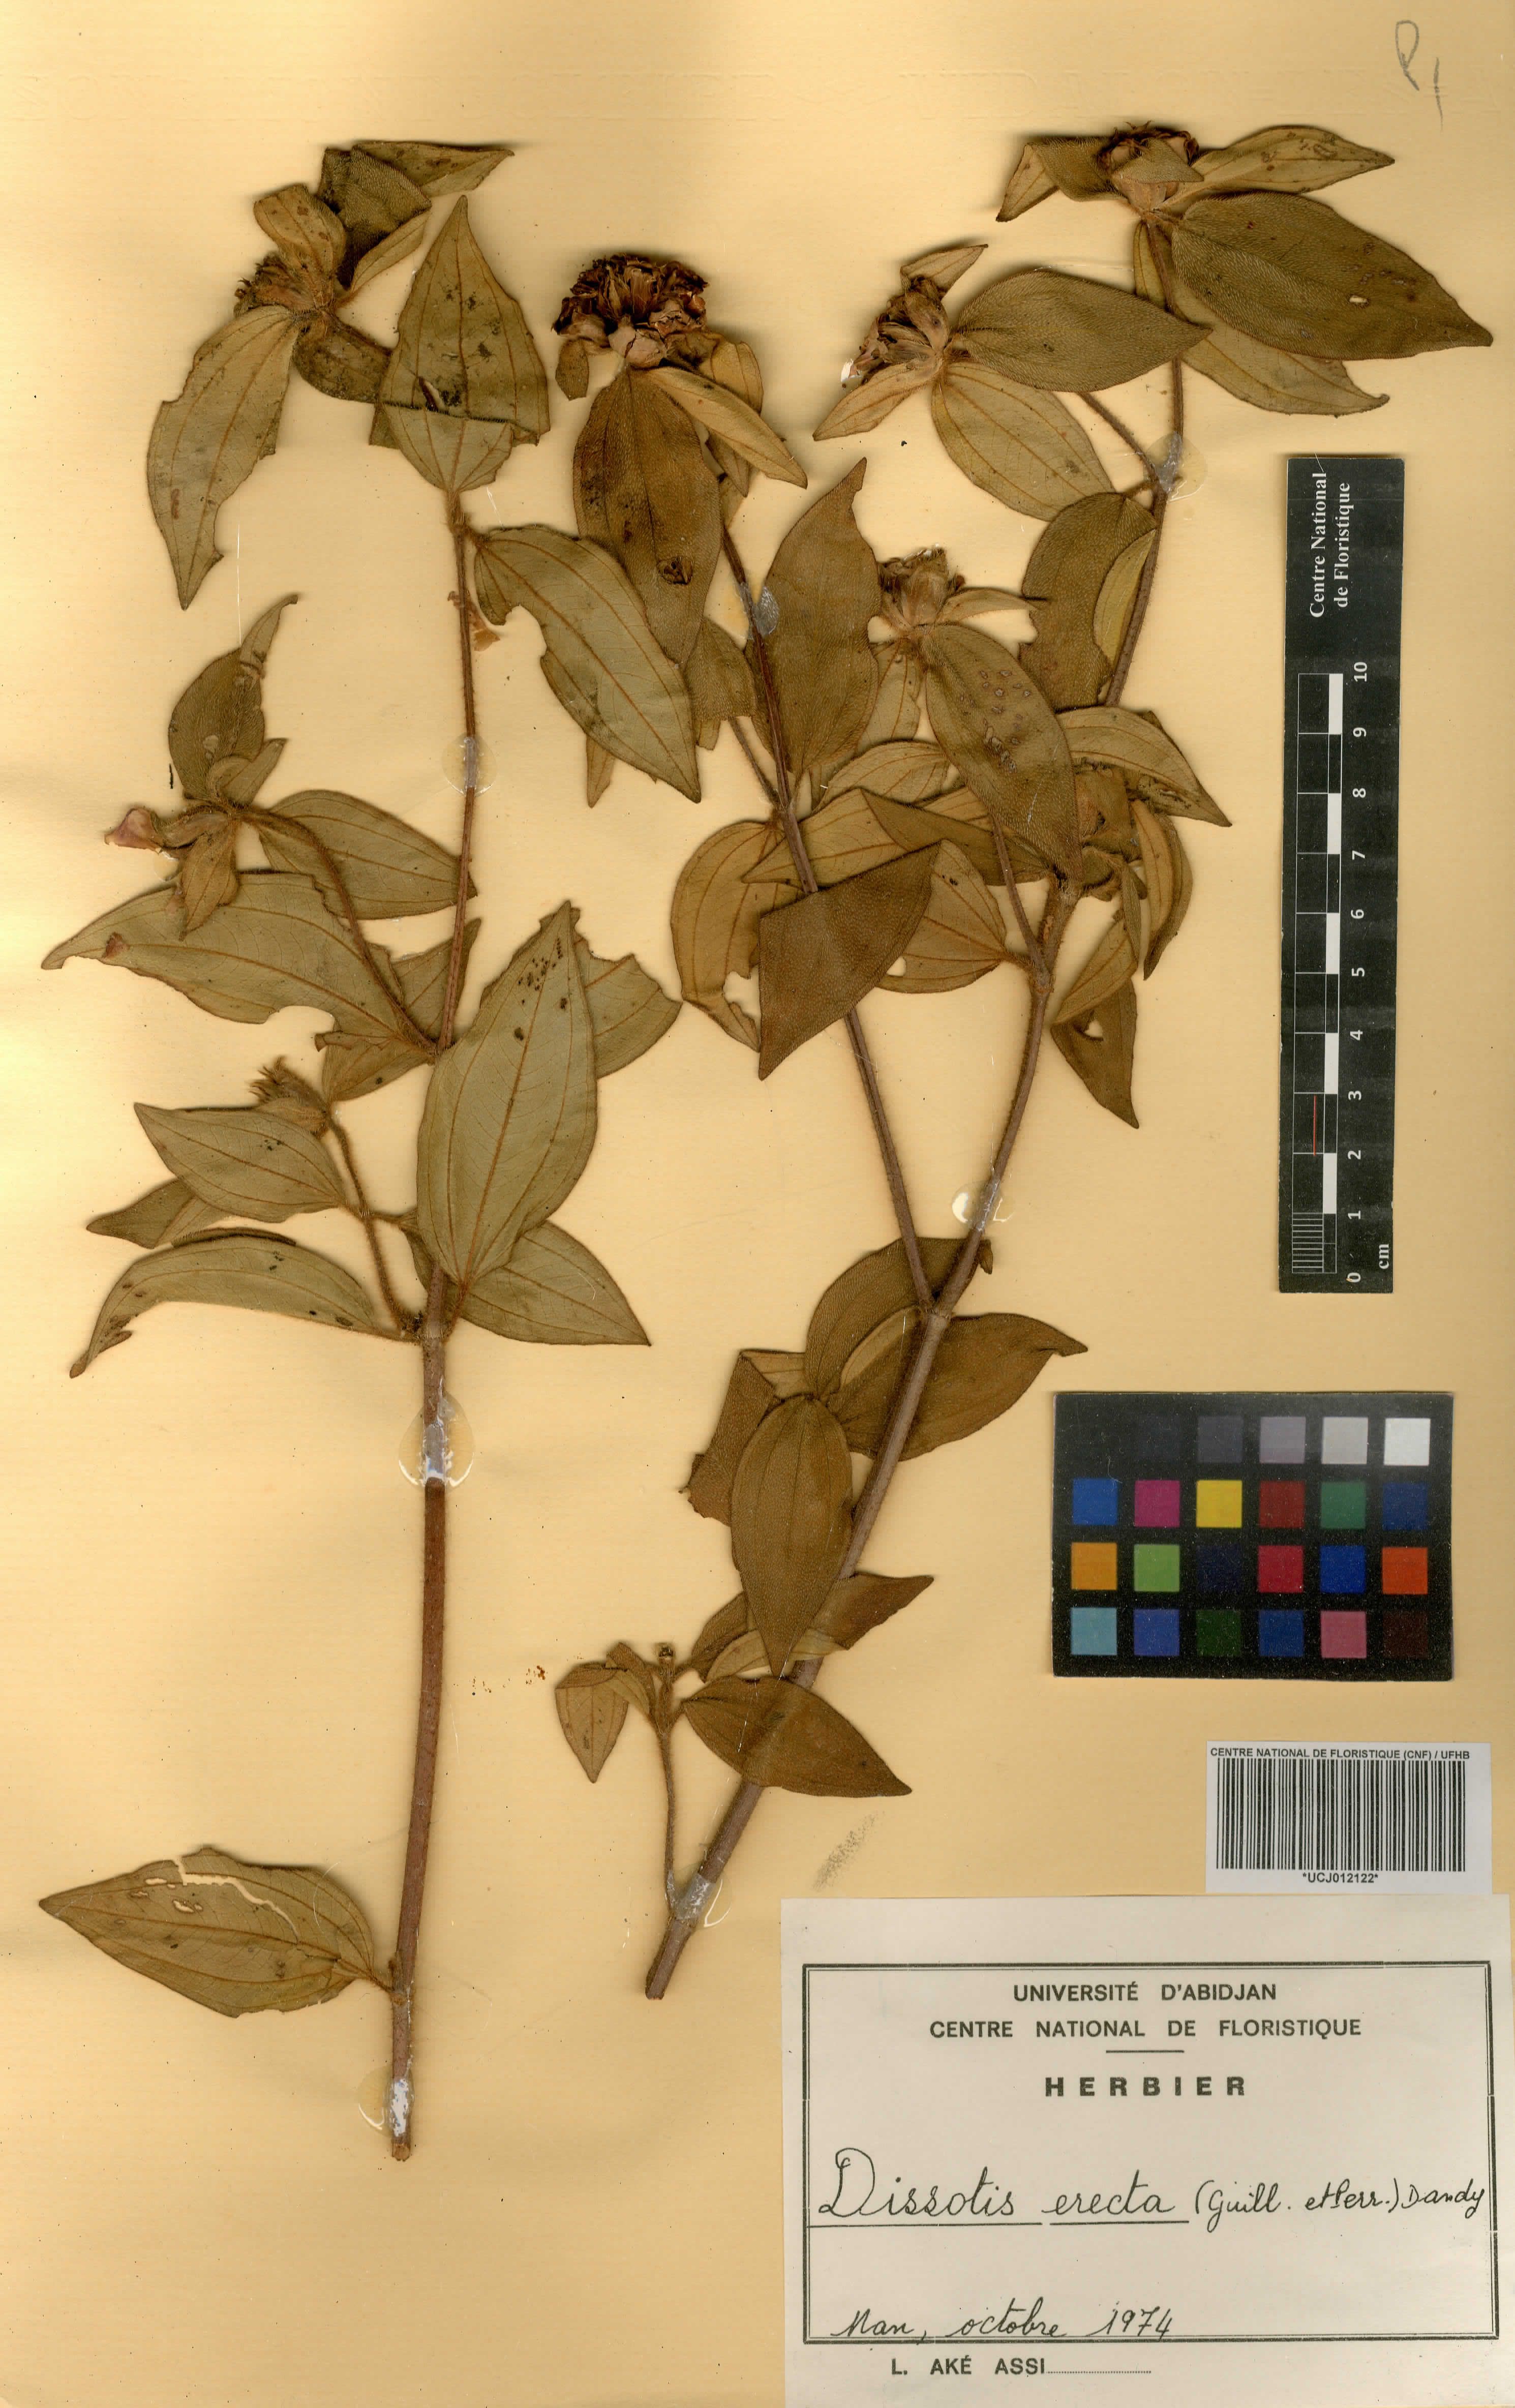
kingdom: Plantae
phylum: Tracheophyta
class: Magnoliopsida
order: Myrtales
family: Melastomataceae
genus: Melastomastrum
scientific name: Melastomastrum capitatum
